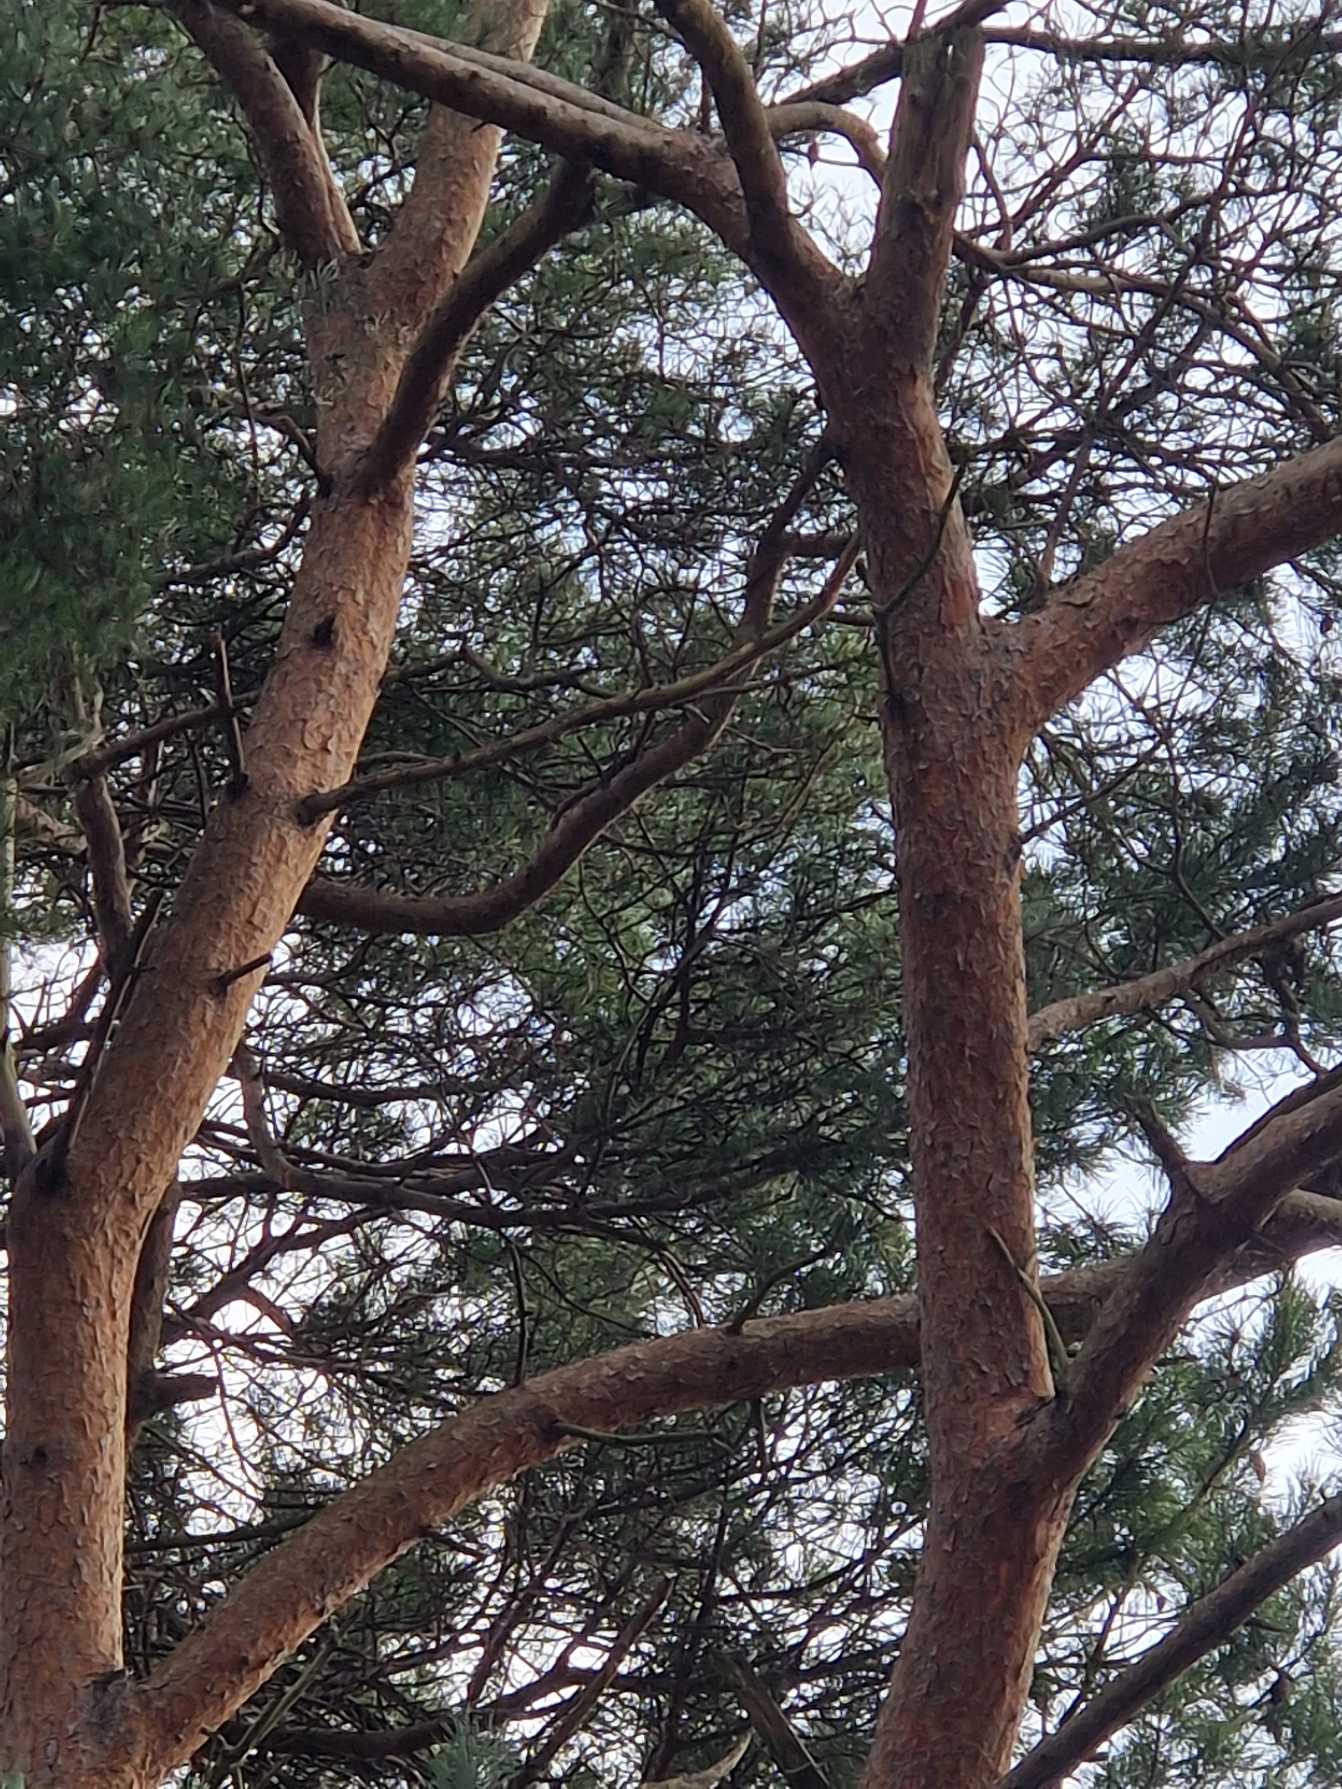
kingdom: Plantae
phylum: Tracheophyta
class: Pinopsida
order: Pinales
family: Pinaceae
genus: Pinus
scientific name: Pinus sylvestris
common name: Skov-fyr
